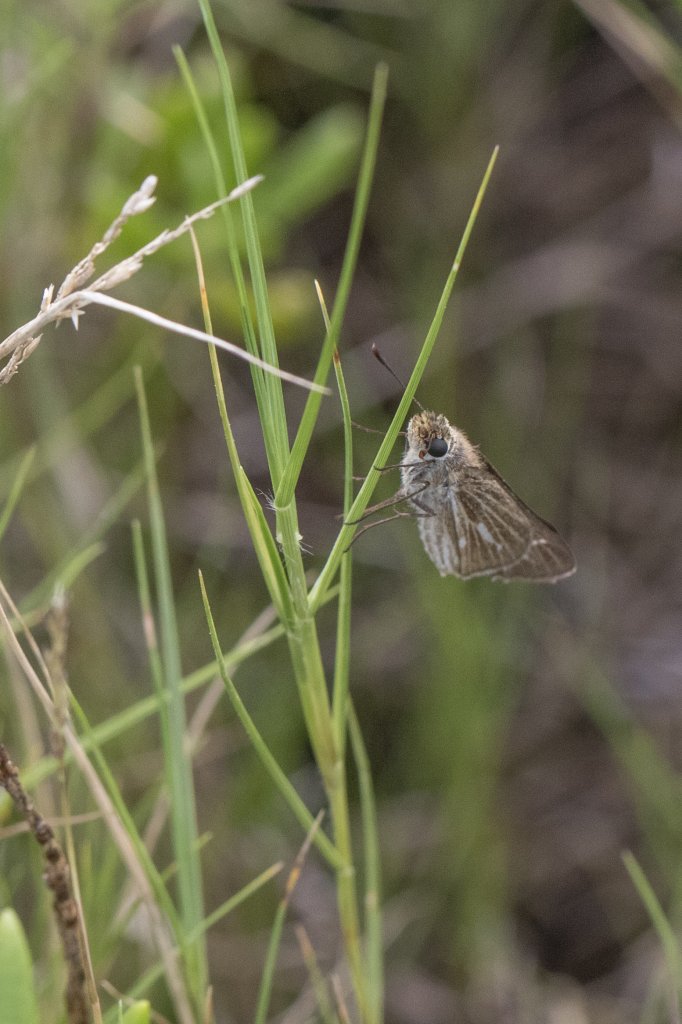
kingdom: Animalia
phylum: Arthropoda
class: Insecta
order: Lepidoptera
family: Hesperiidae
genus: Panoquina
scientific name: Panoquina panoquin
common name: Salt Marsh Skipper
